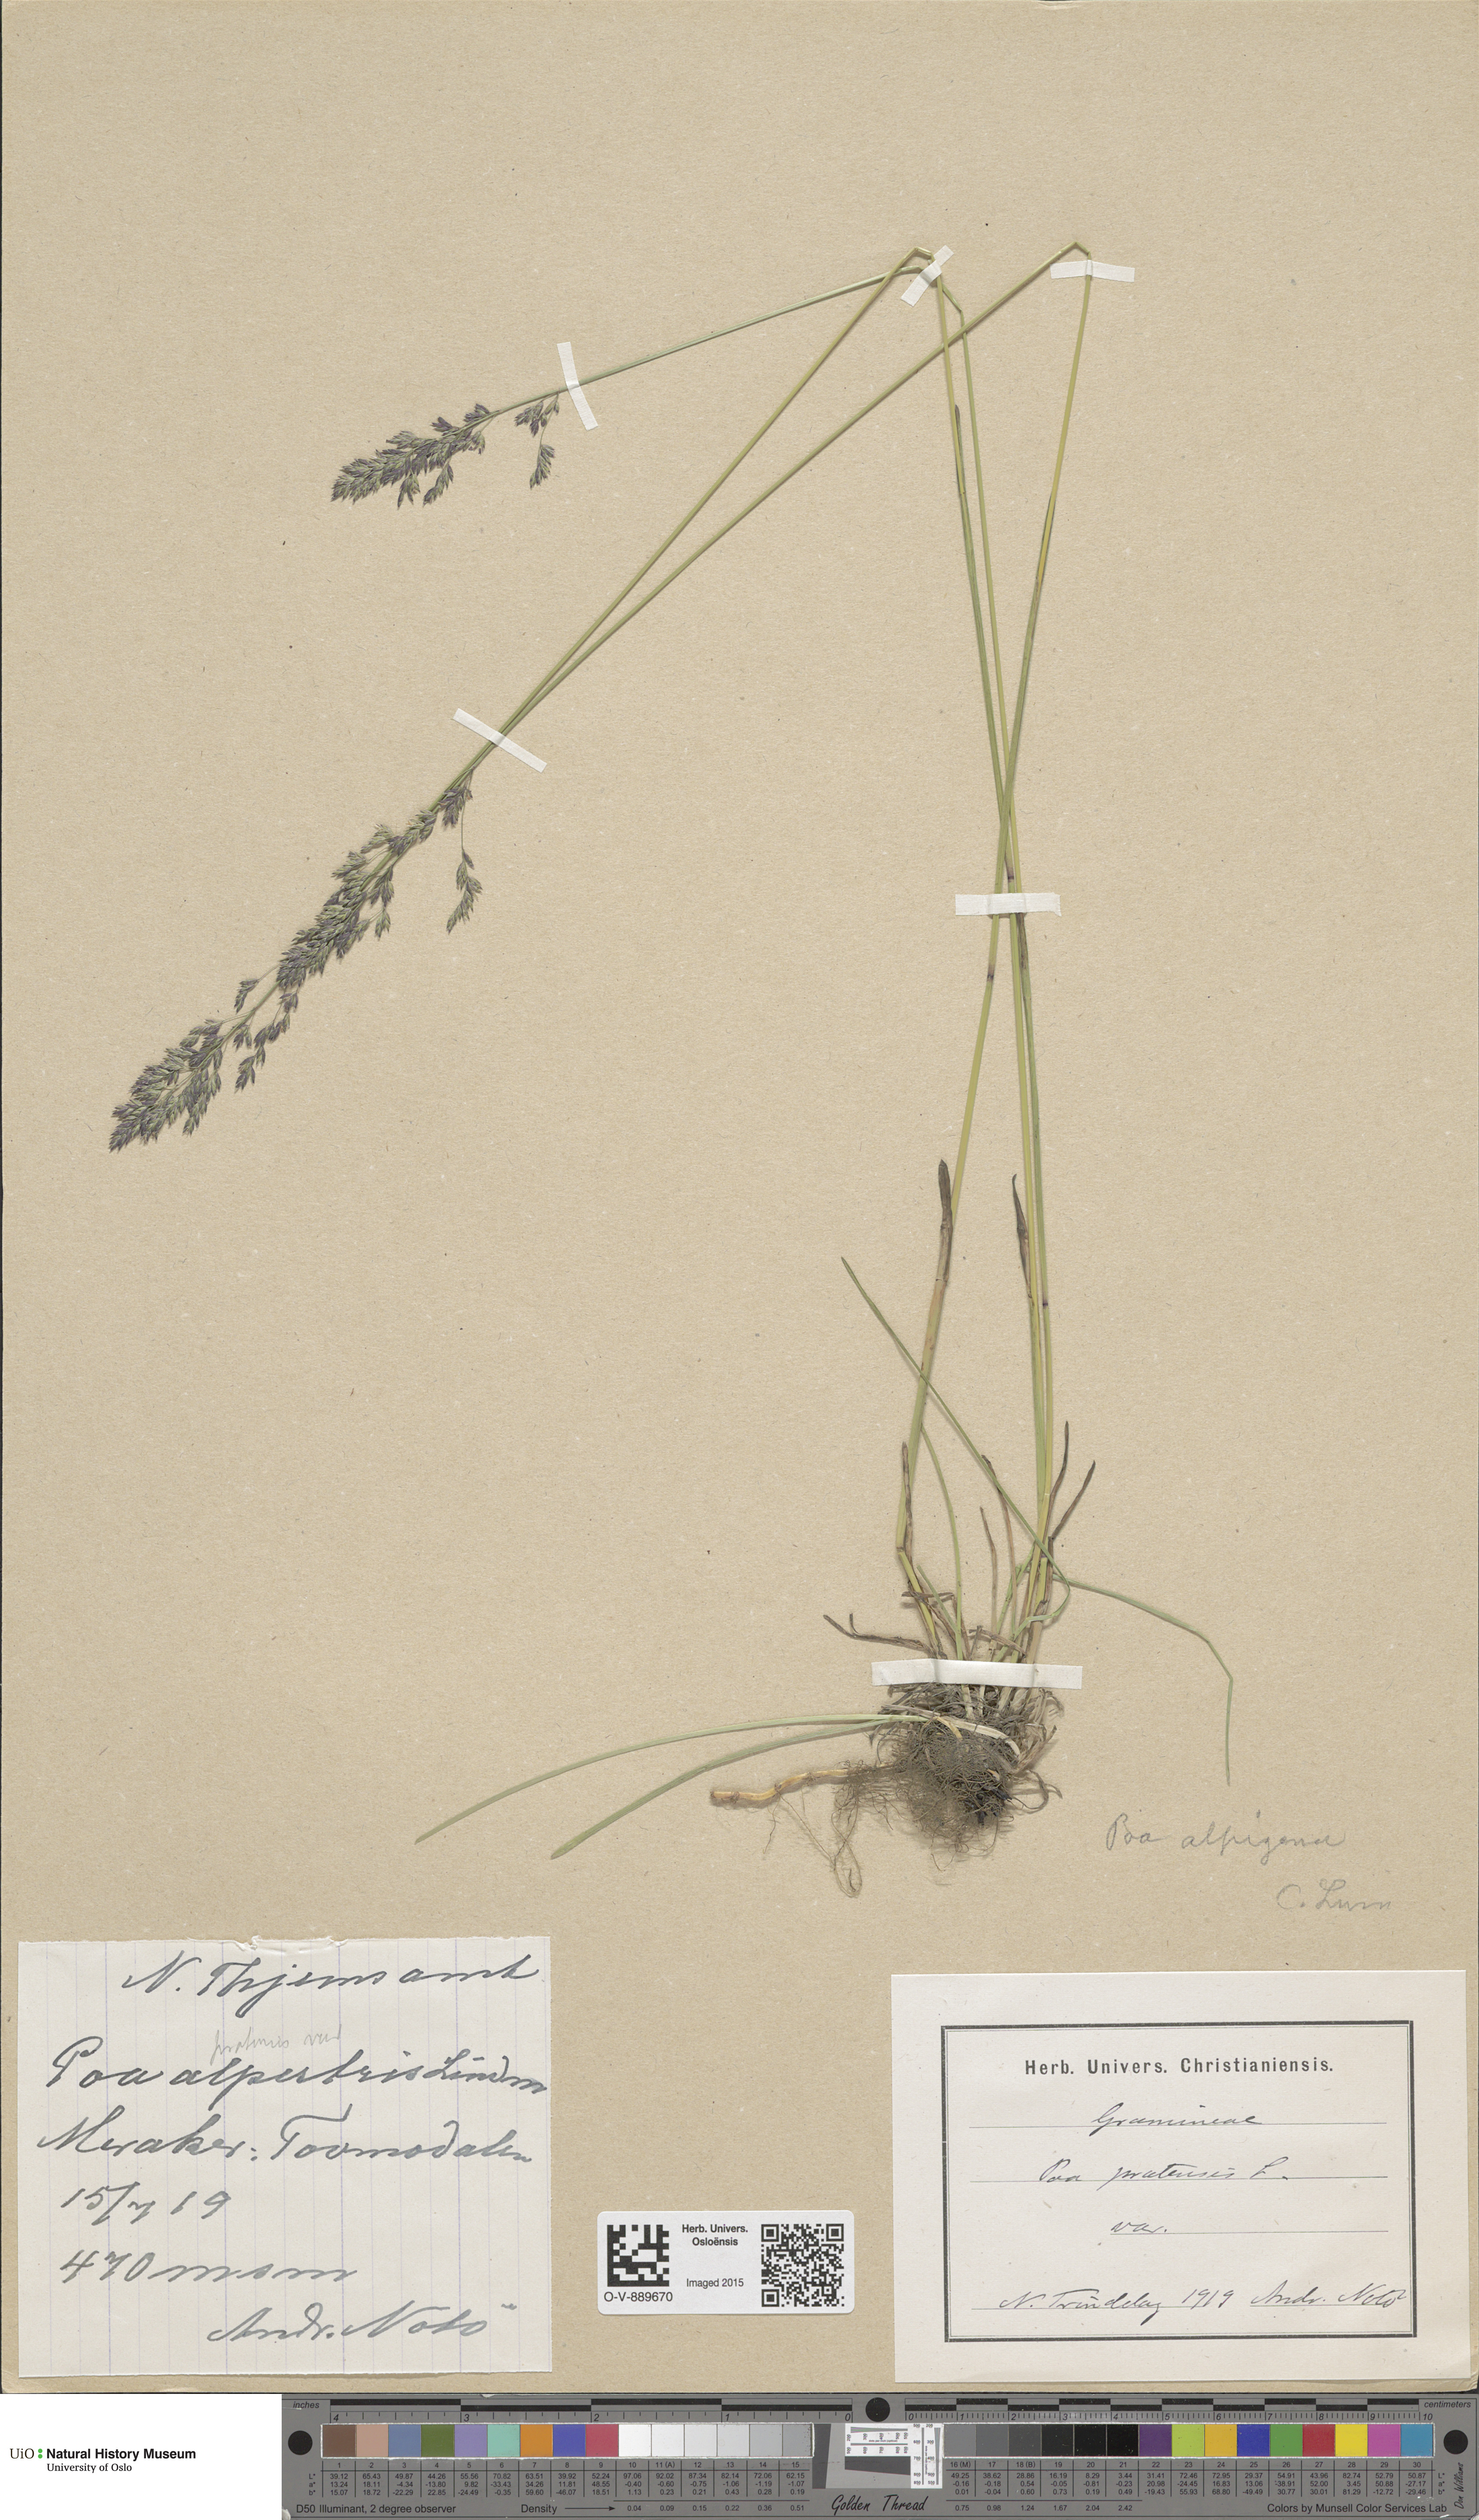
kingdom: Plantae
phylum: Tracheophyta
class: Liliopsida
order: Poales
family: Poaceae
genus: Poa
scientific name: Poa alpigena
